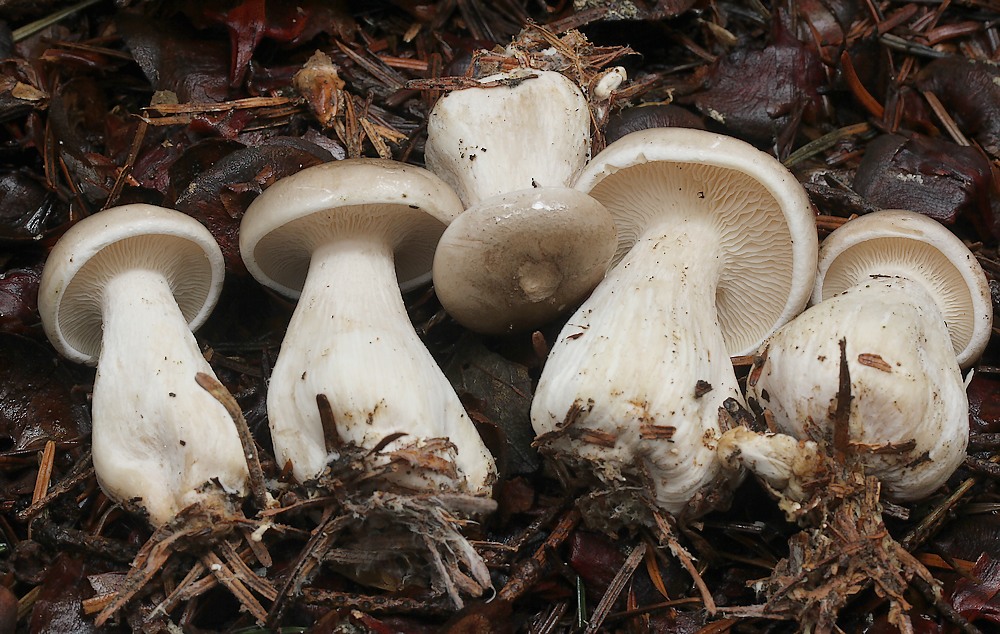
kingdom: Fungi
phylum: Basidiomycota
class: Agaricomycetes
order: Agaricales
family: Tricholomataceae
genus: Clitocybe
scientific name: Clitocybe nebularis
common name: tåge-tragthat
